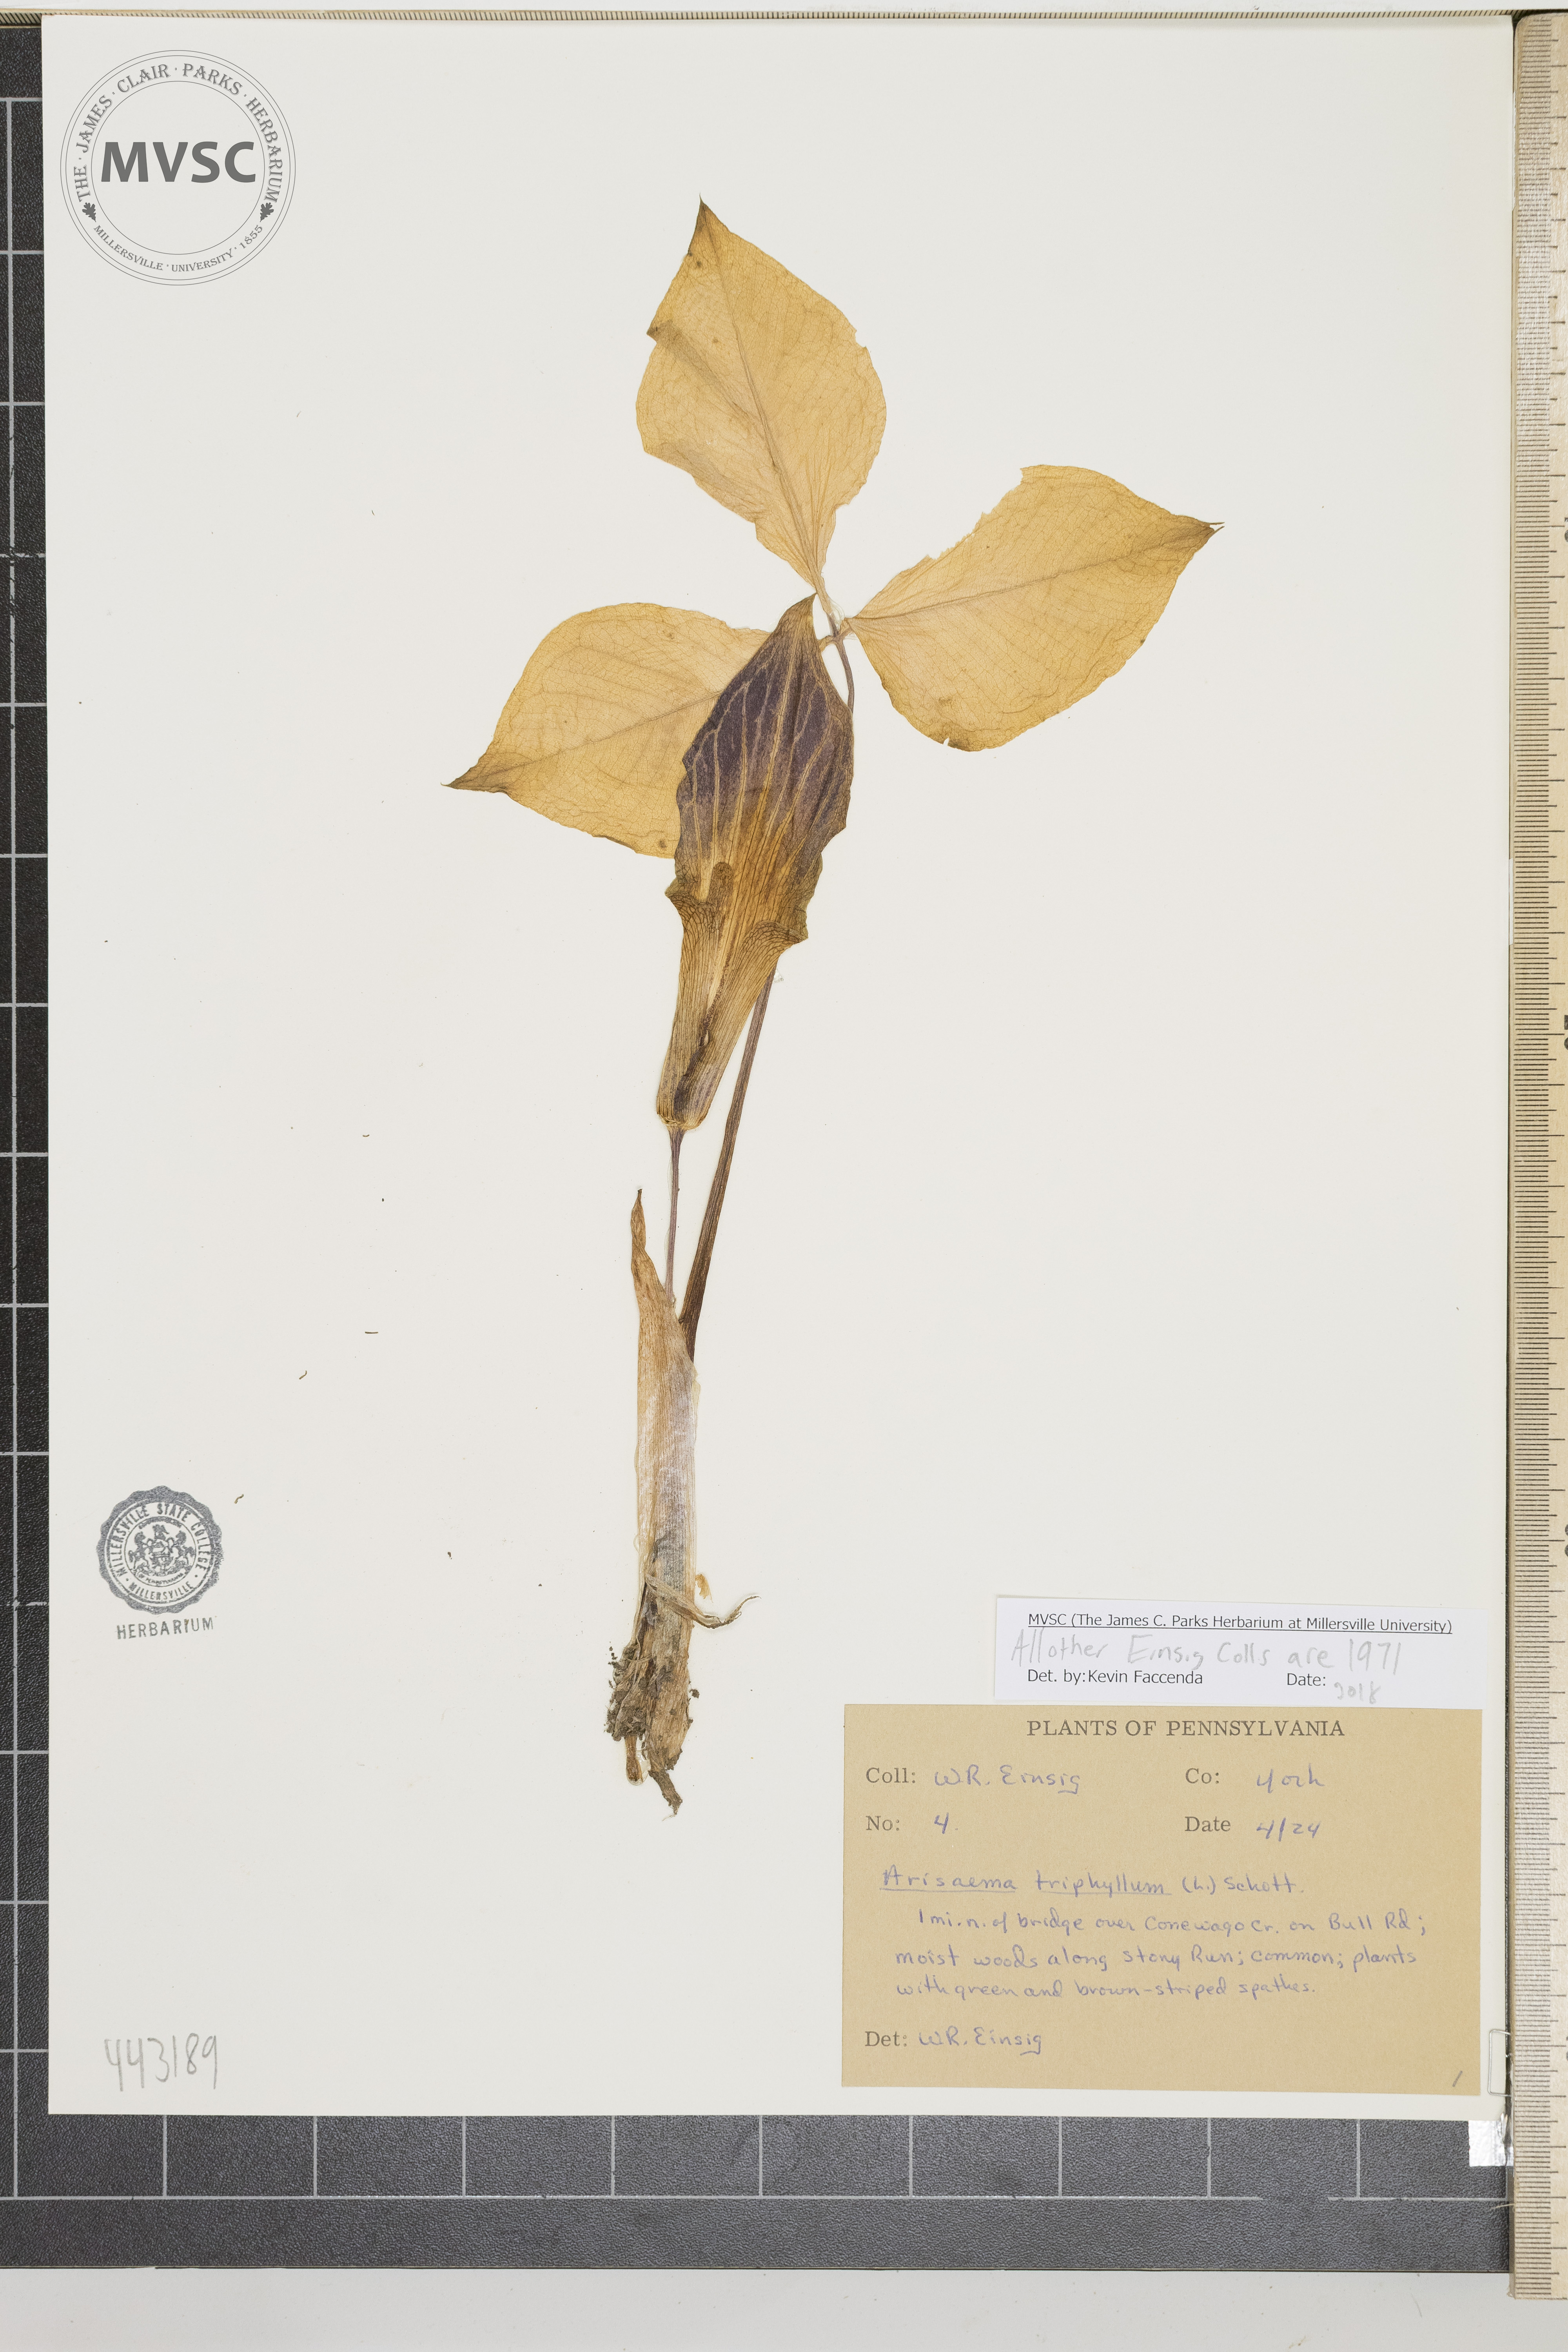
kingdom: Plantae
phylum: Tracheophyta
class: Liliopsida
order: Alismatales
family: Araceae
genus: Arisaema
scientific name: Arisaema triphyllum
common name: Jack-in-the-pulpit
